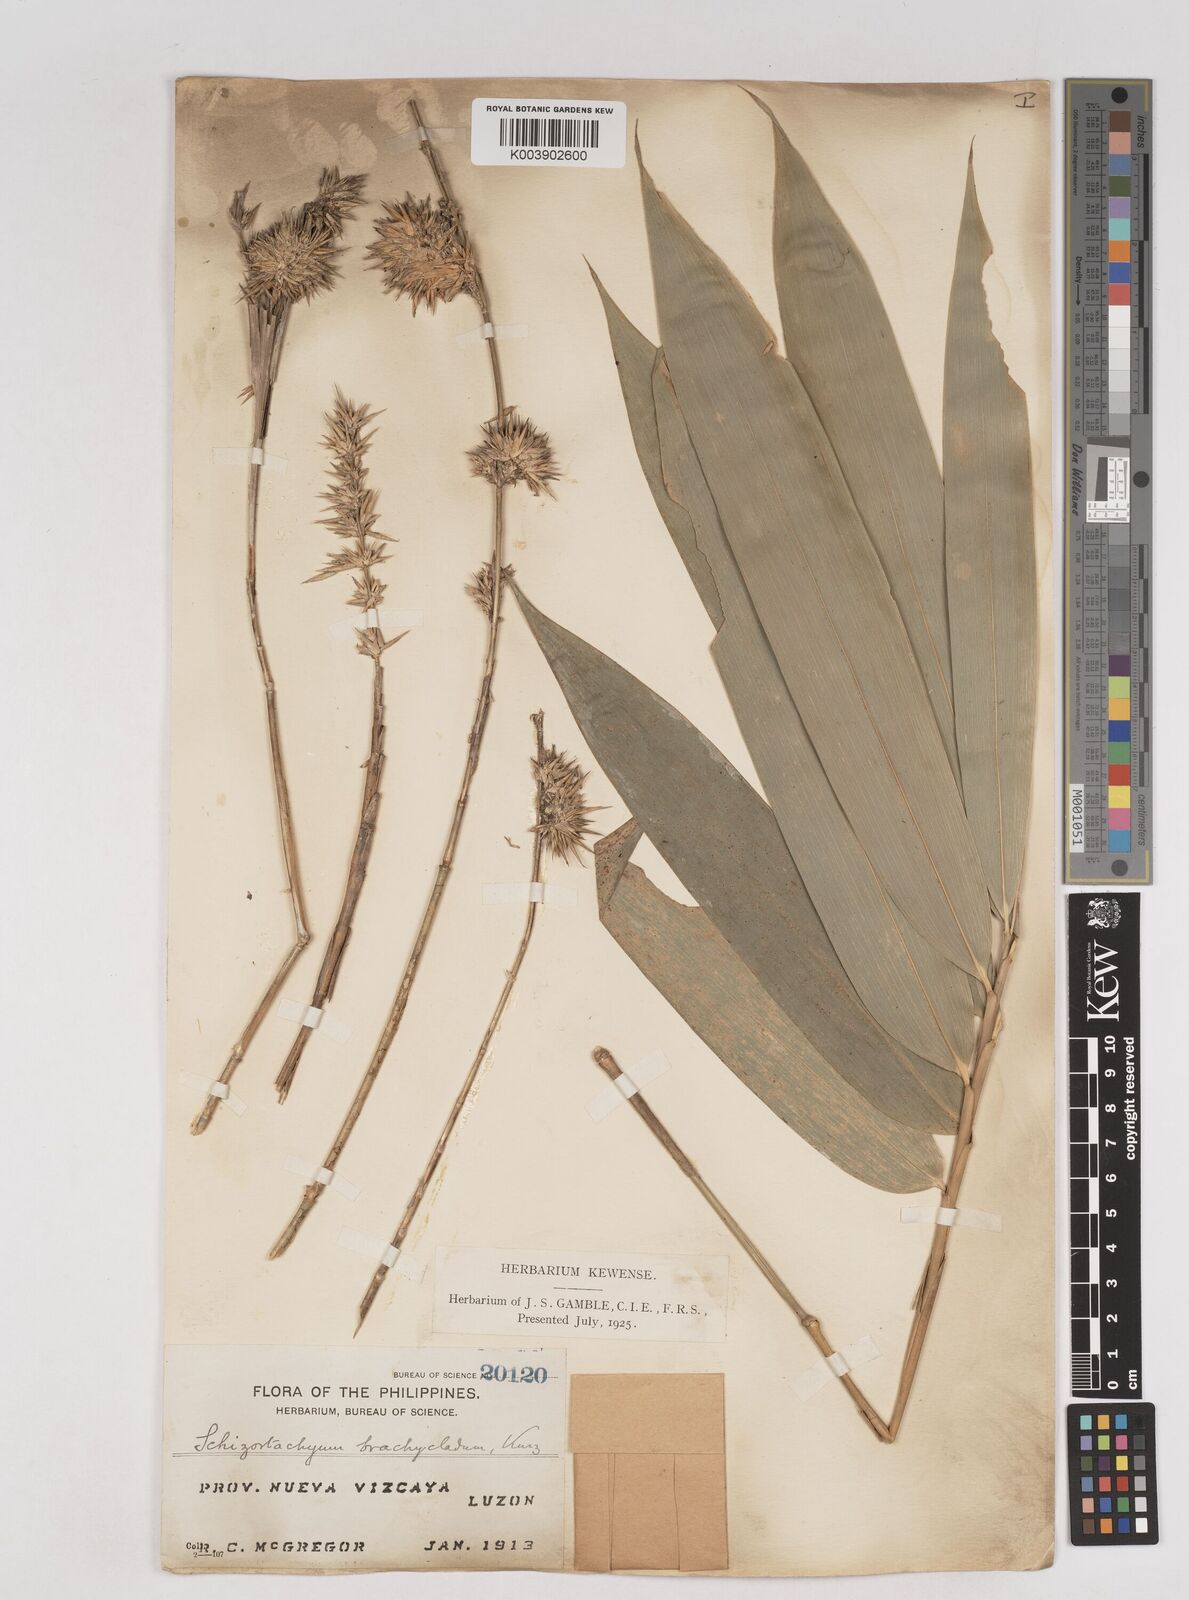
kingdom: Plantae
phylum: Tracheophyta
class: Liliopsida
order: Poales
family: Poaceae
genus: Schizostachyum
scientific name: Schizostachyum brachycladum
